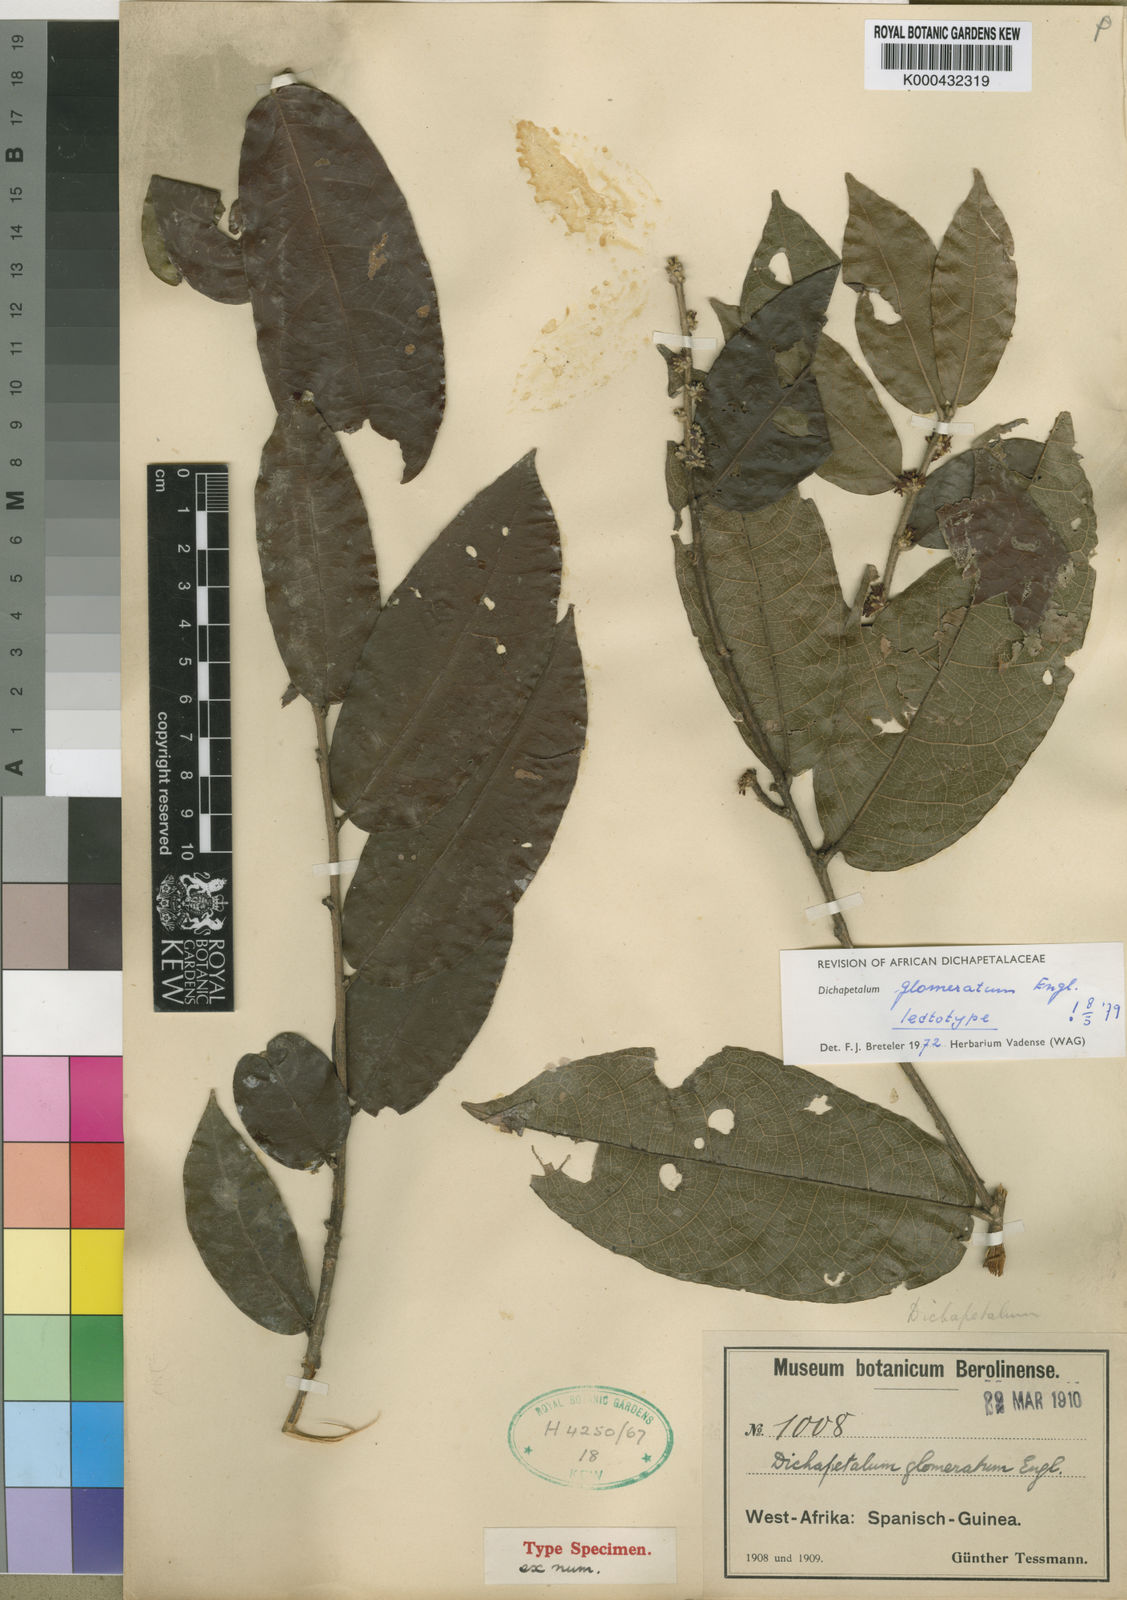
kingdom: Plantae
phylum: Tracheophyta
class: Magnoliopsida
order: Malpighiales
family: Dichapetalaceae
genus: Dichapetalum
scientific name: Dichapetalum glomeratum
